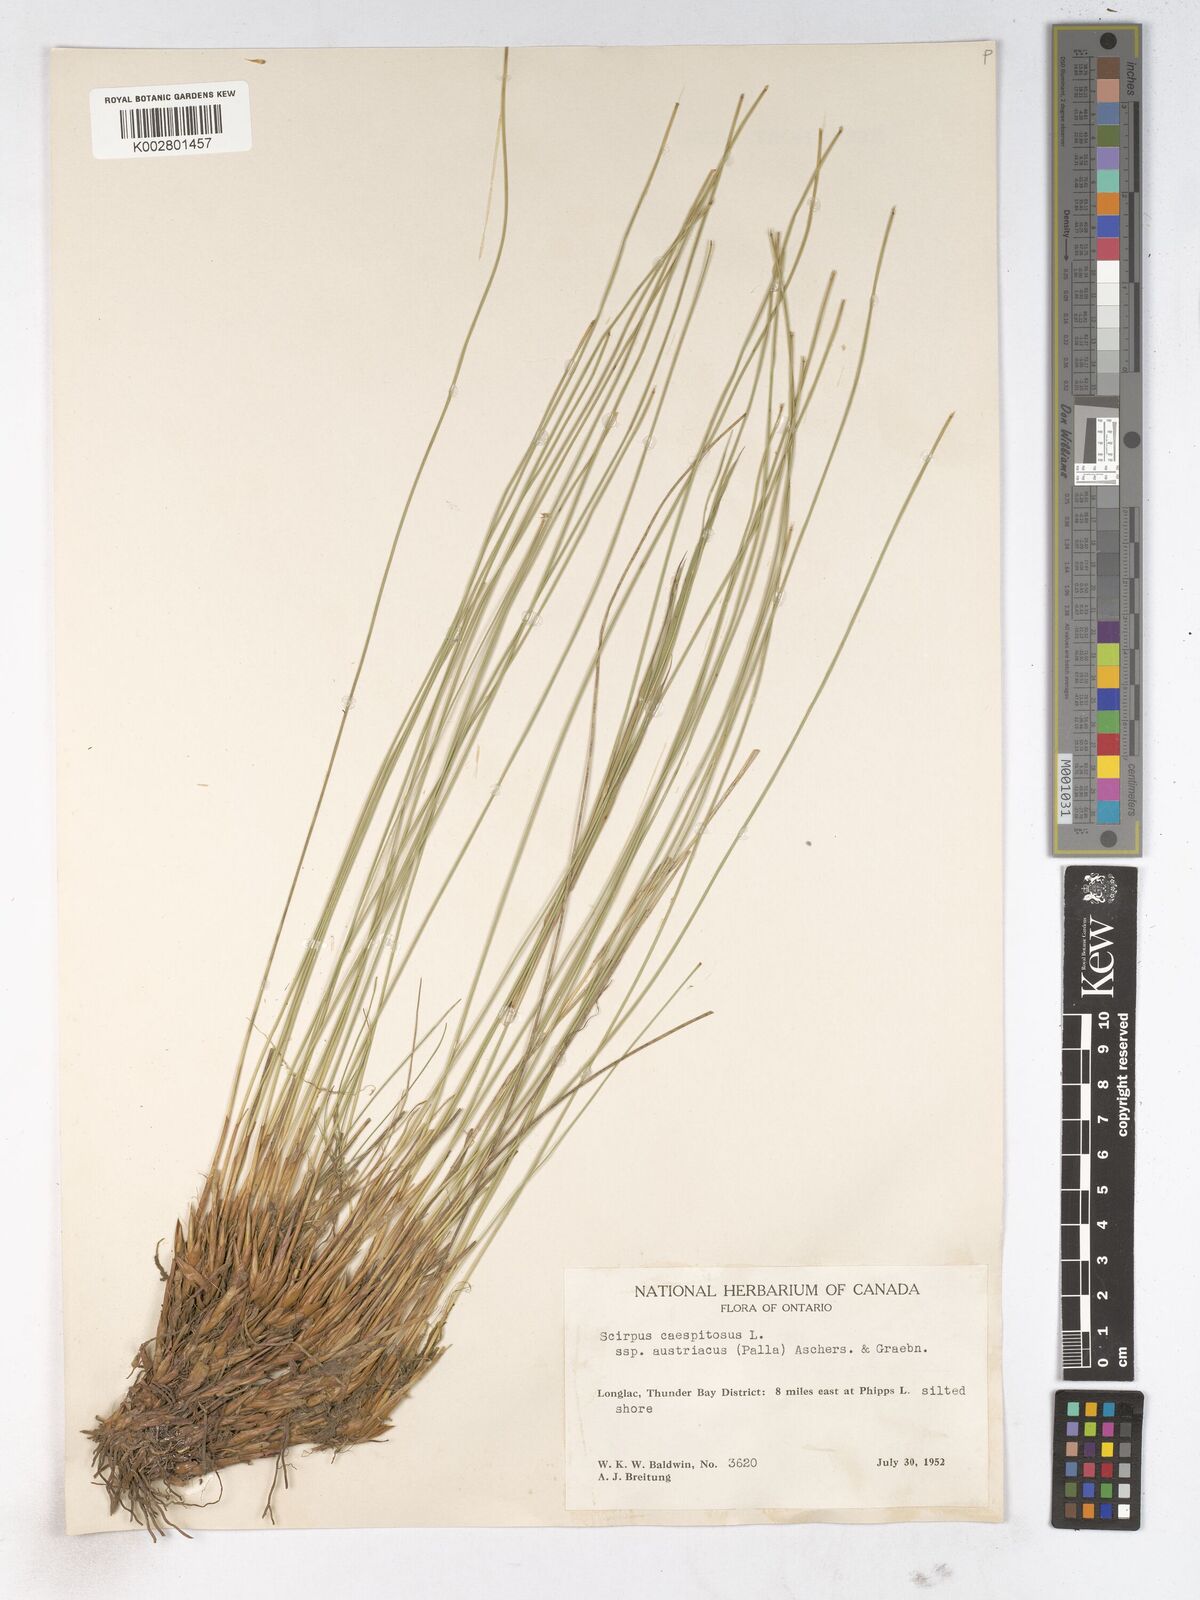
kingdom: Plantae
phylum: Tracheophyta
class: Liliopsida
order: Poales
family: Cyperaceae
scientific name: Cyperaceae
